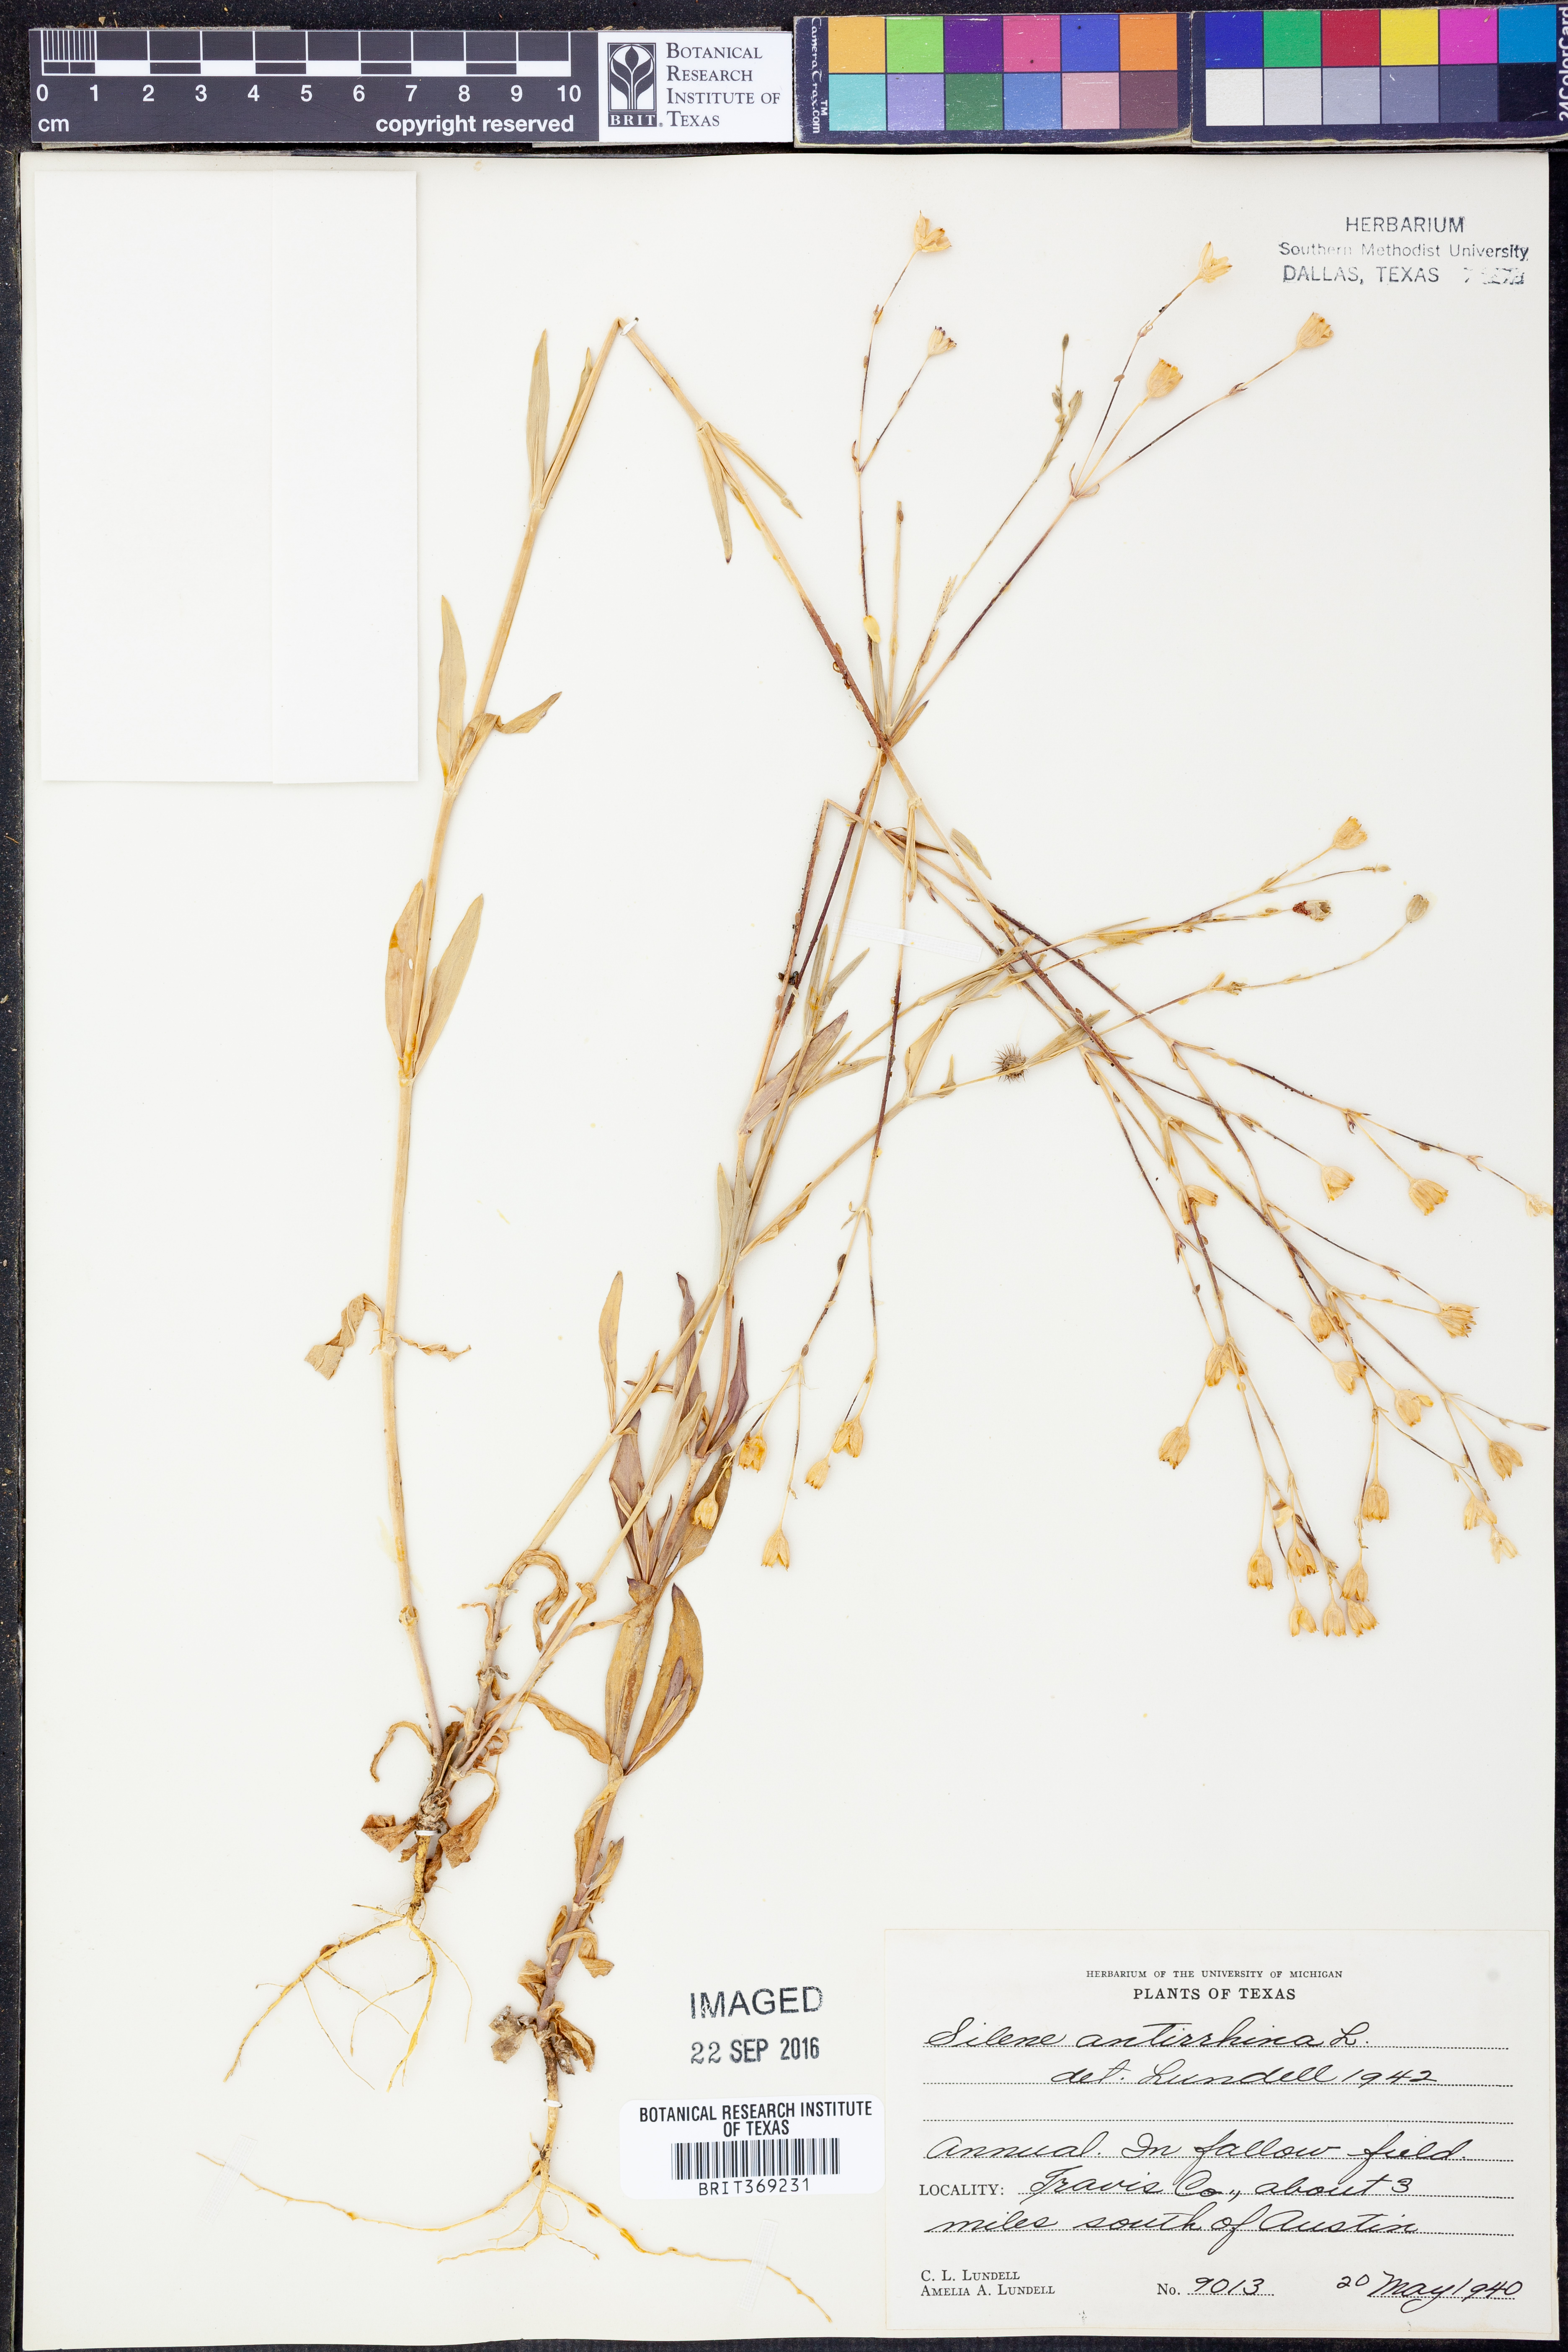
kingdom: Plantae
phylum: Tracheophyta
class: Magnoliopsida
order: Caryophyllales
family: Caryophyllaceae
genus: Silene
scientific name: Silene antirrhina
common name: Sleepy catchfly
